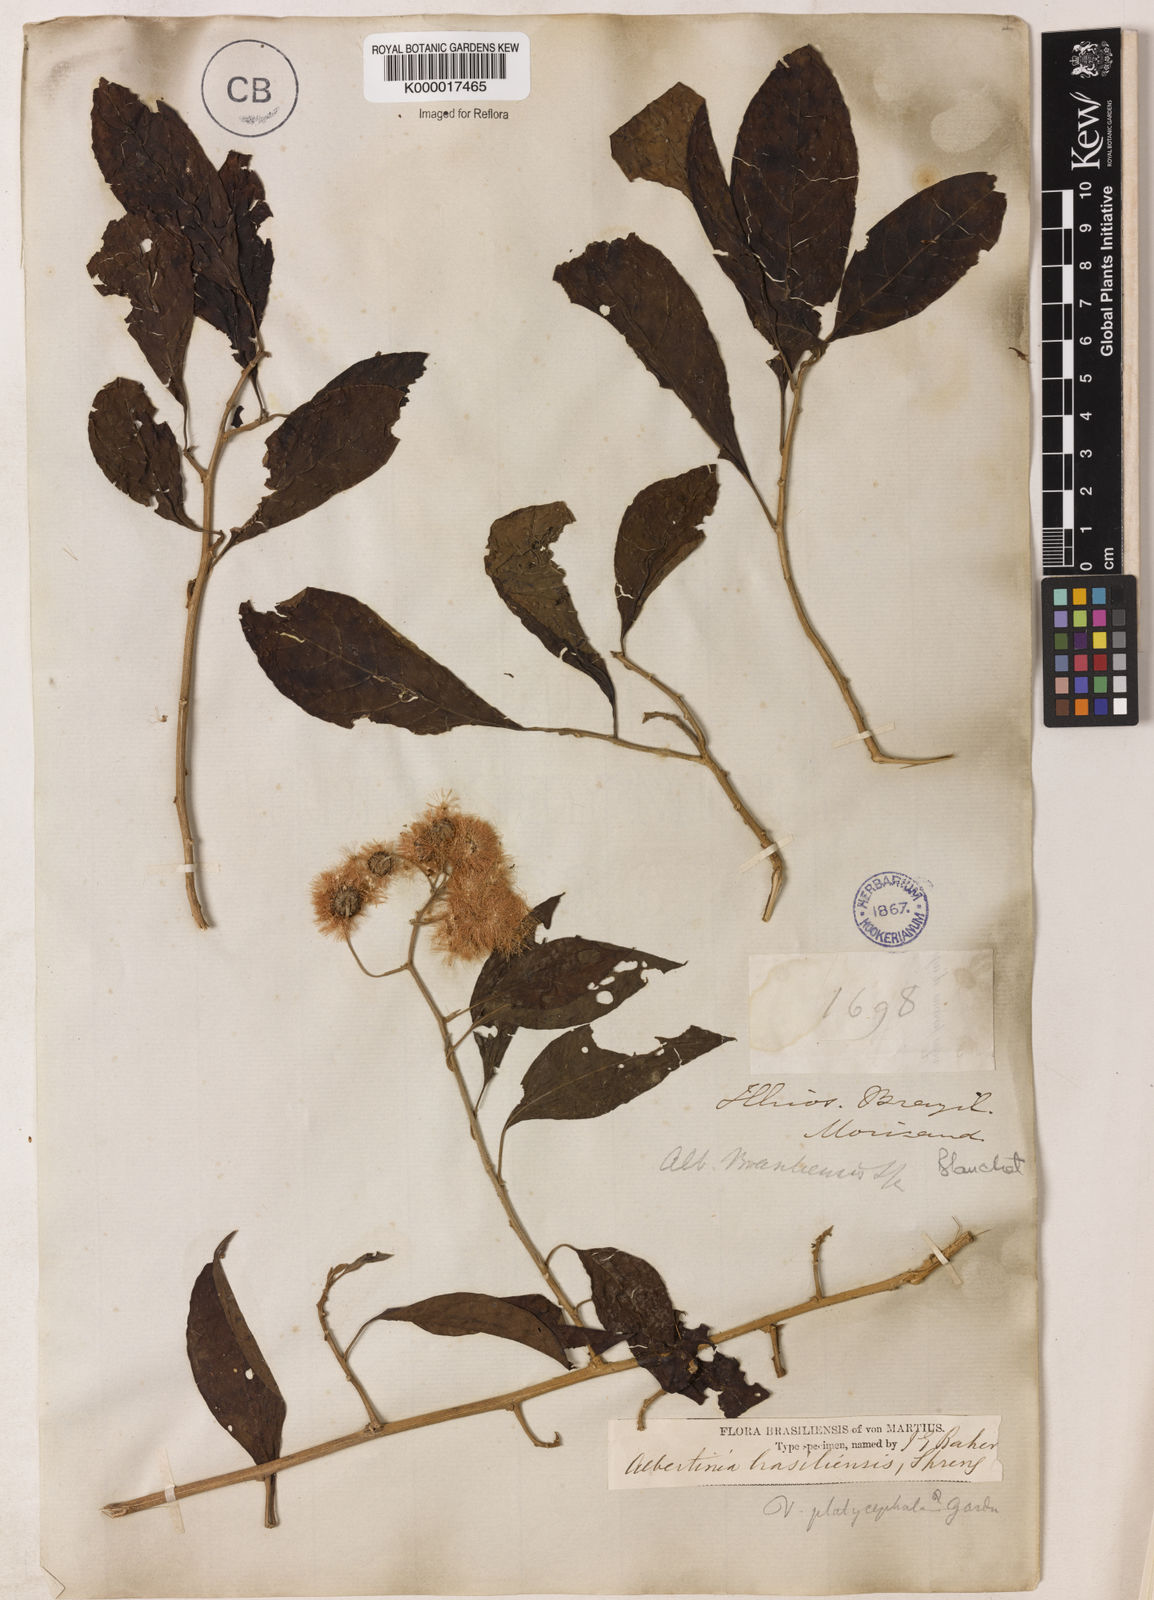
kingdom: Plantae
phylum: Tracheophyta
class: Magnoliopsida
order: Asterales
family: Asteraceae
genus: Albertinia
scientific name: Albertinia brasiliensis
